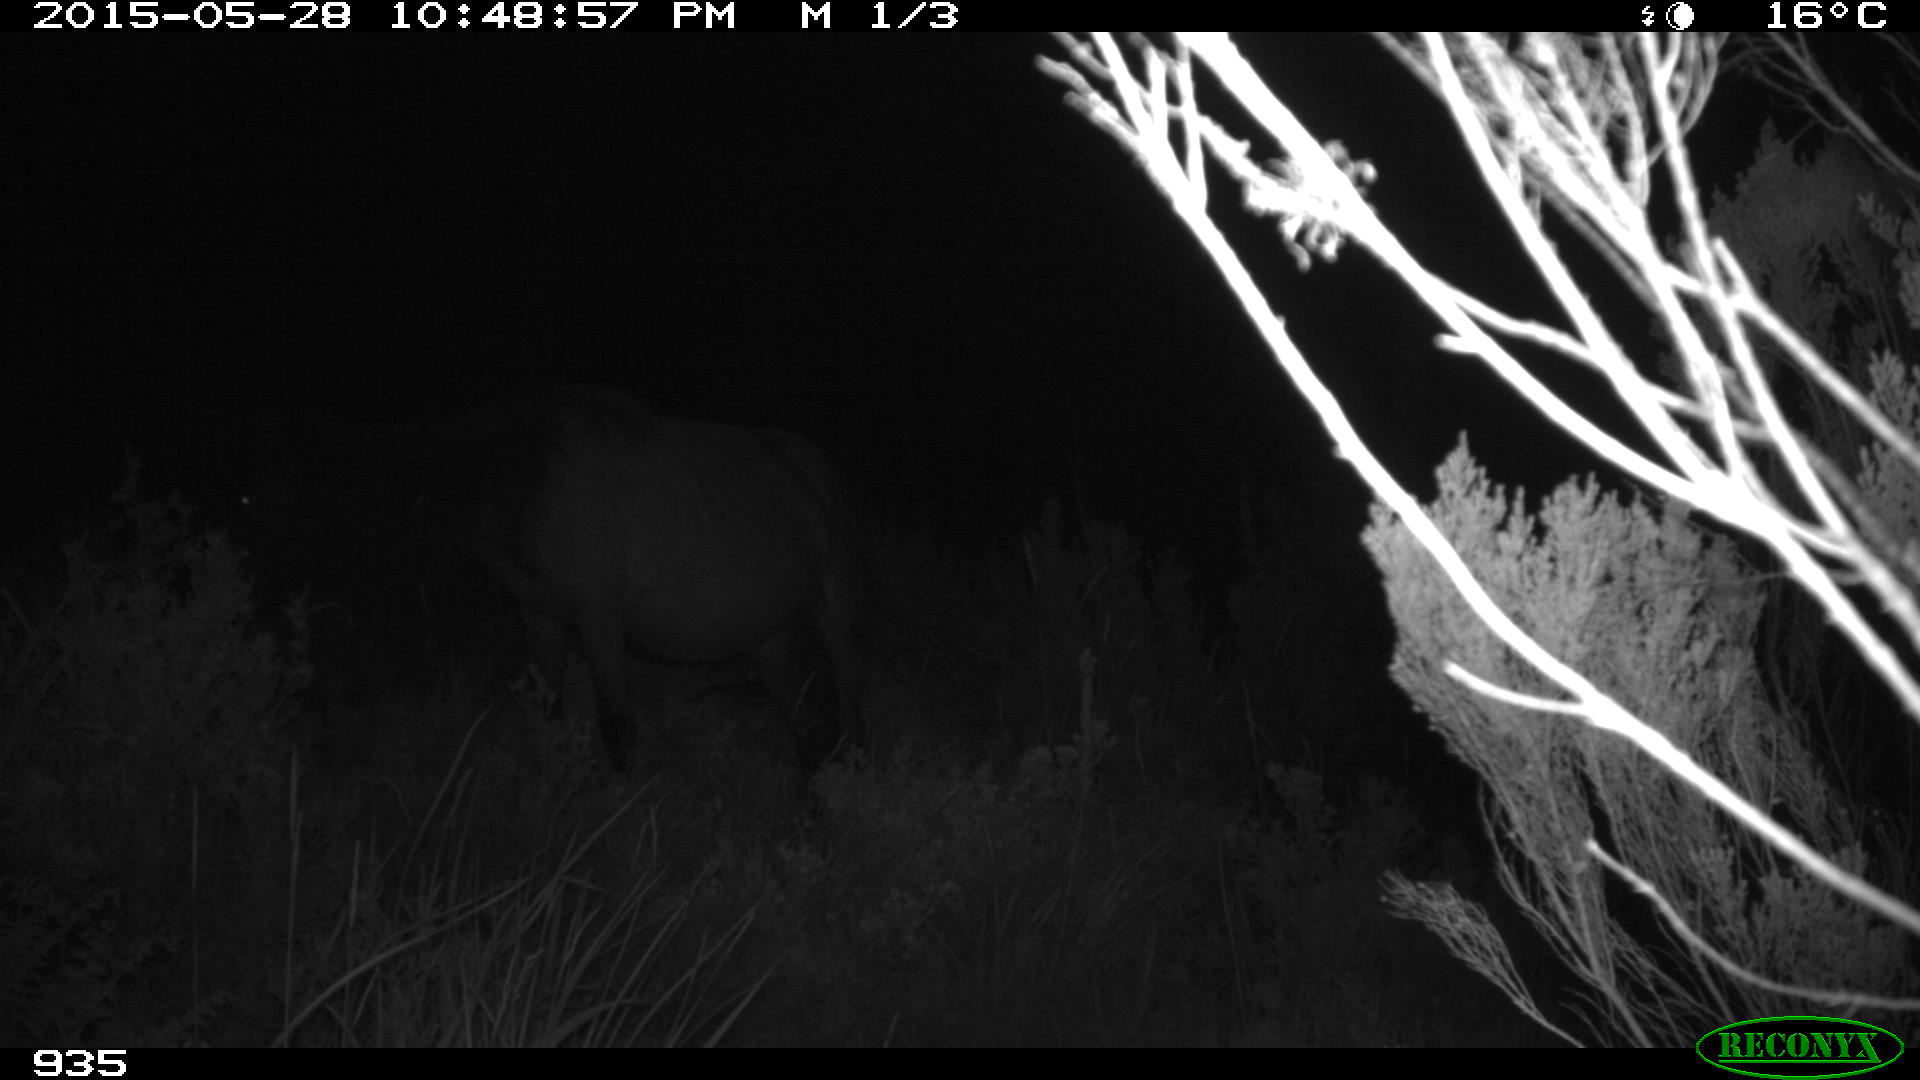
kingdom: Animalia
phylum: Chordata
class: Mammalia
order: Perissodactyla
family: Equidae
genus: Equus
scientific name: Equus caballus
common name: Horse
